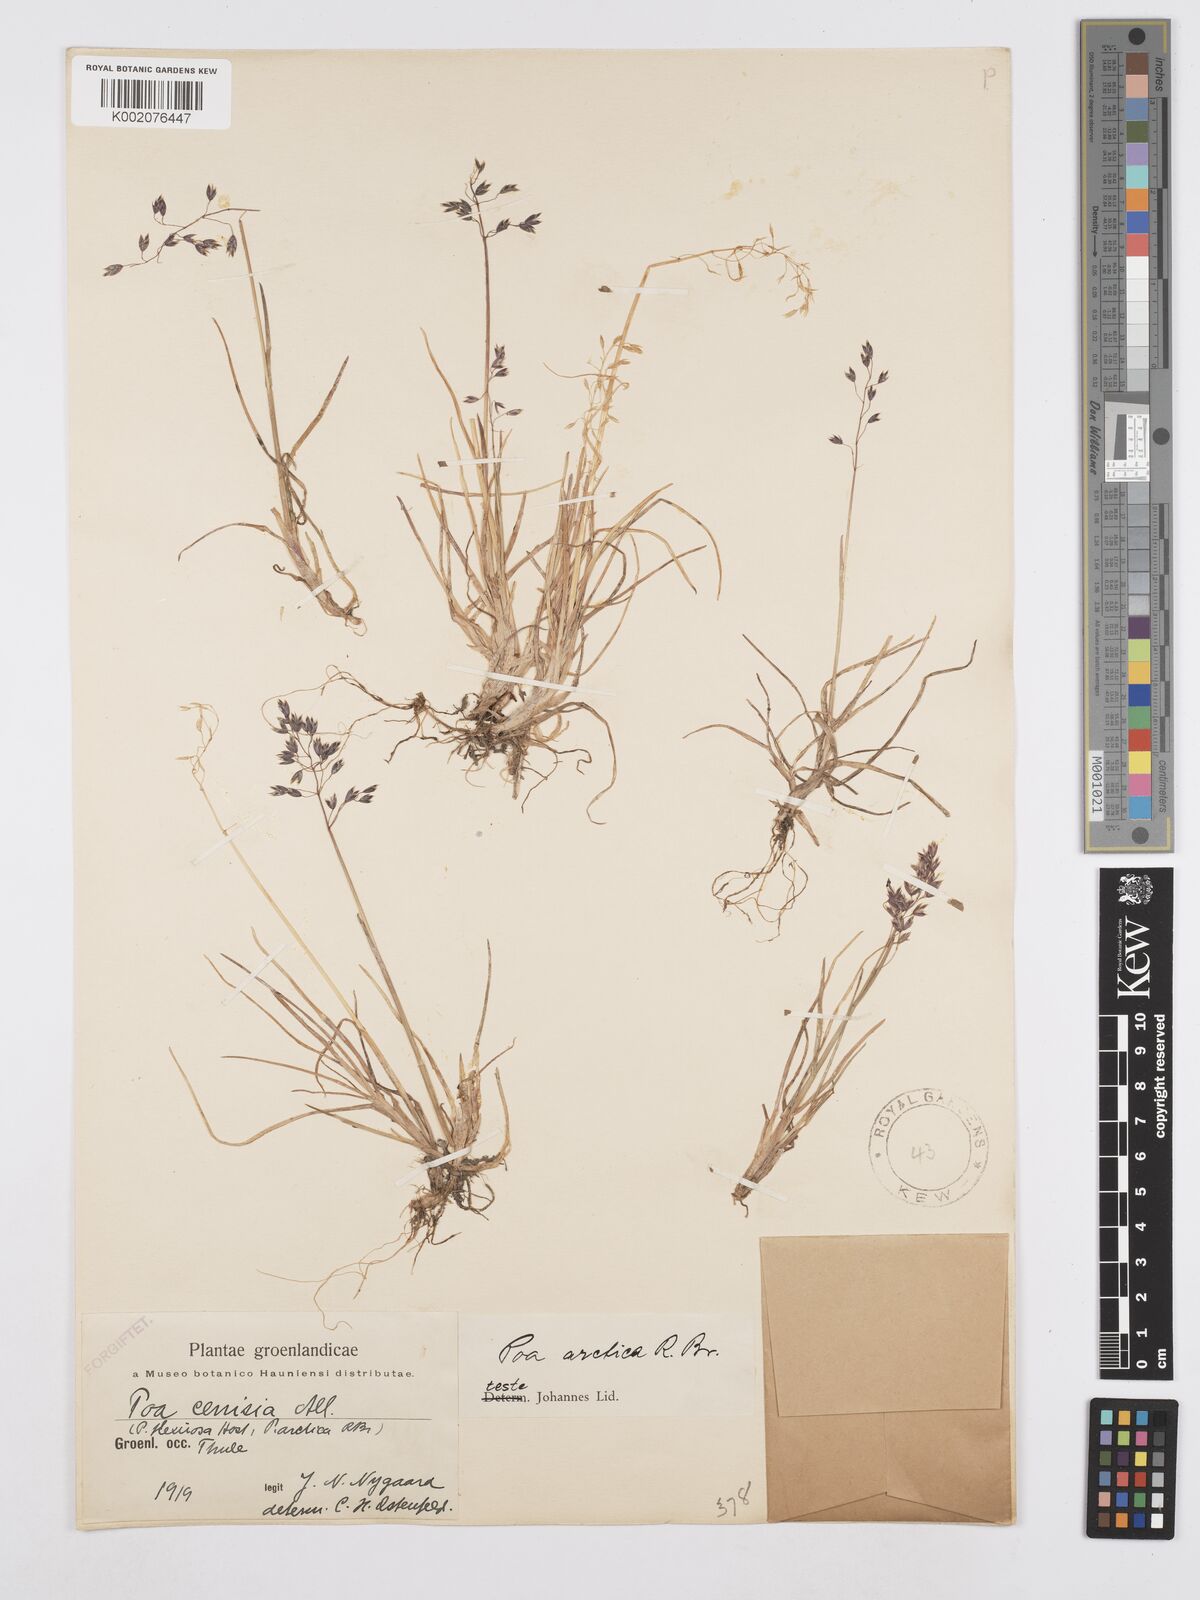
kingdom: Plantae
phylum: Tracheophyta
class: Liliopsida
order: Poales
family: Poaceae
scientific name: Poaceae
